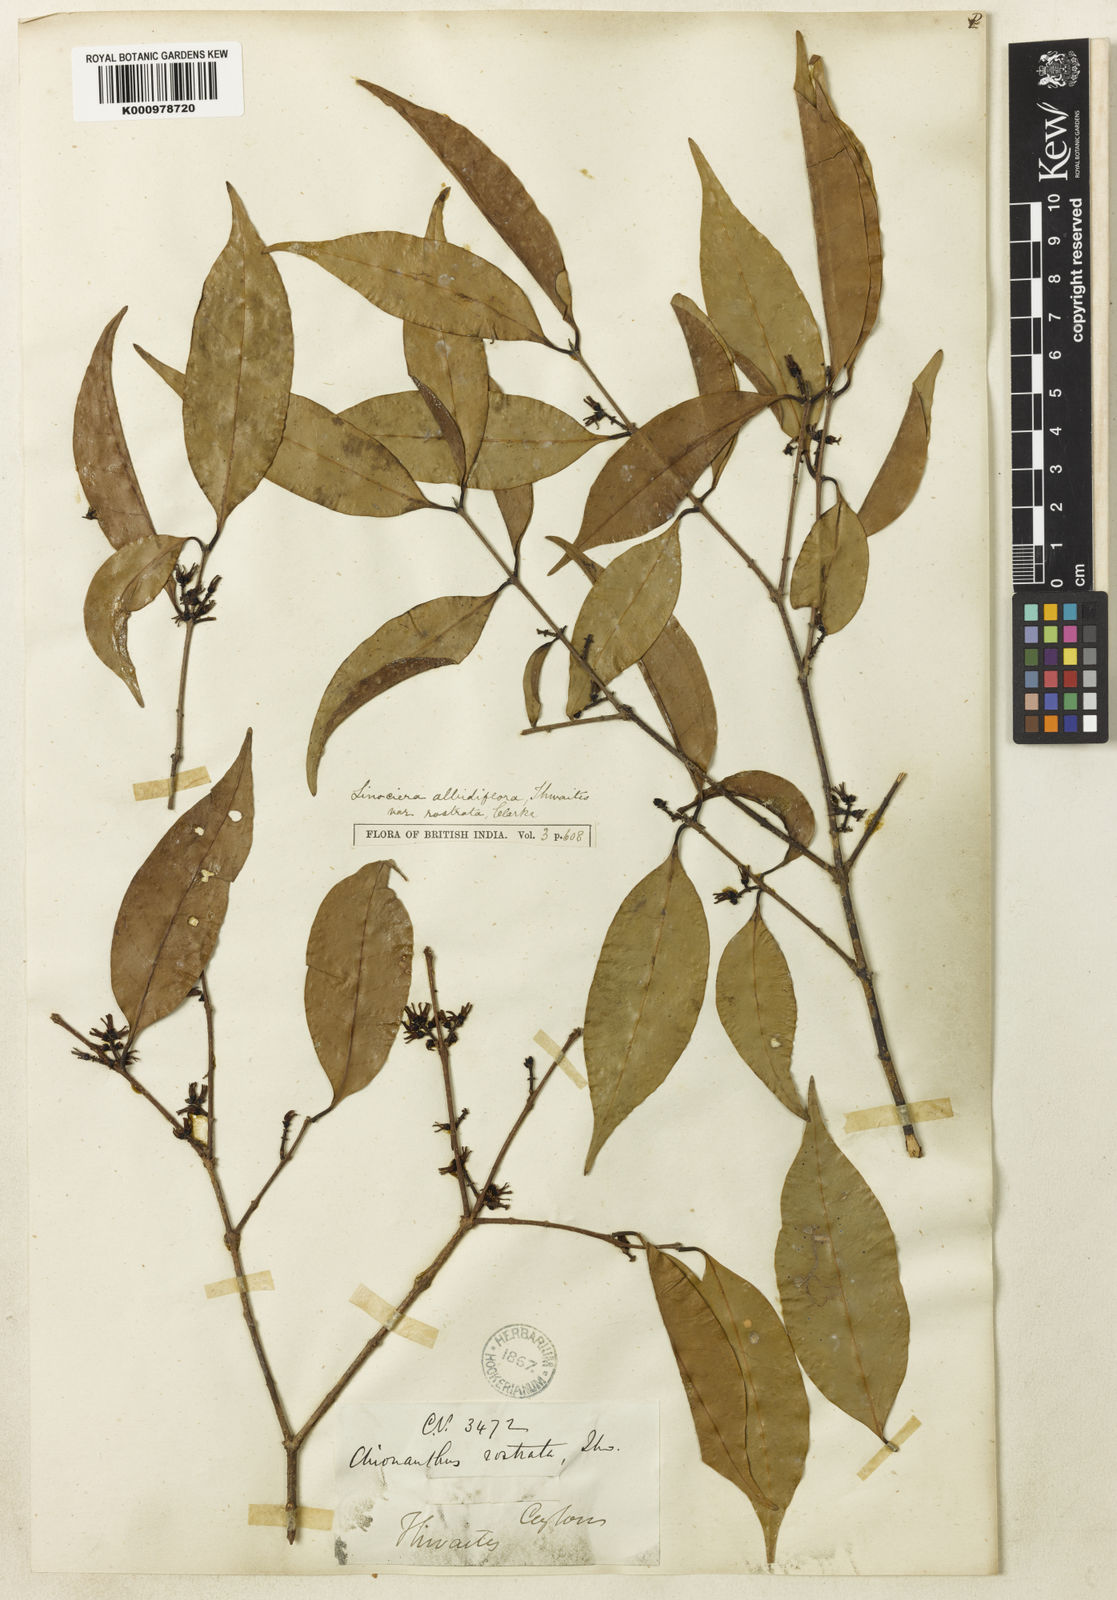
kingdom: Plantae
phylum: Tracheophyta
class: Magnoliopsida
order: Lamiales
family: Oleaceae
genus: Chionanthus
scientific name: Chionanthus albidiflorus
